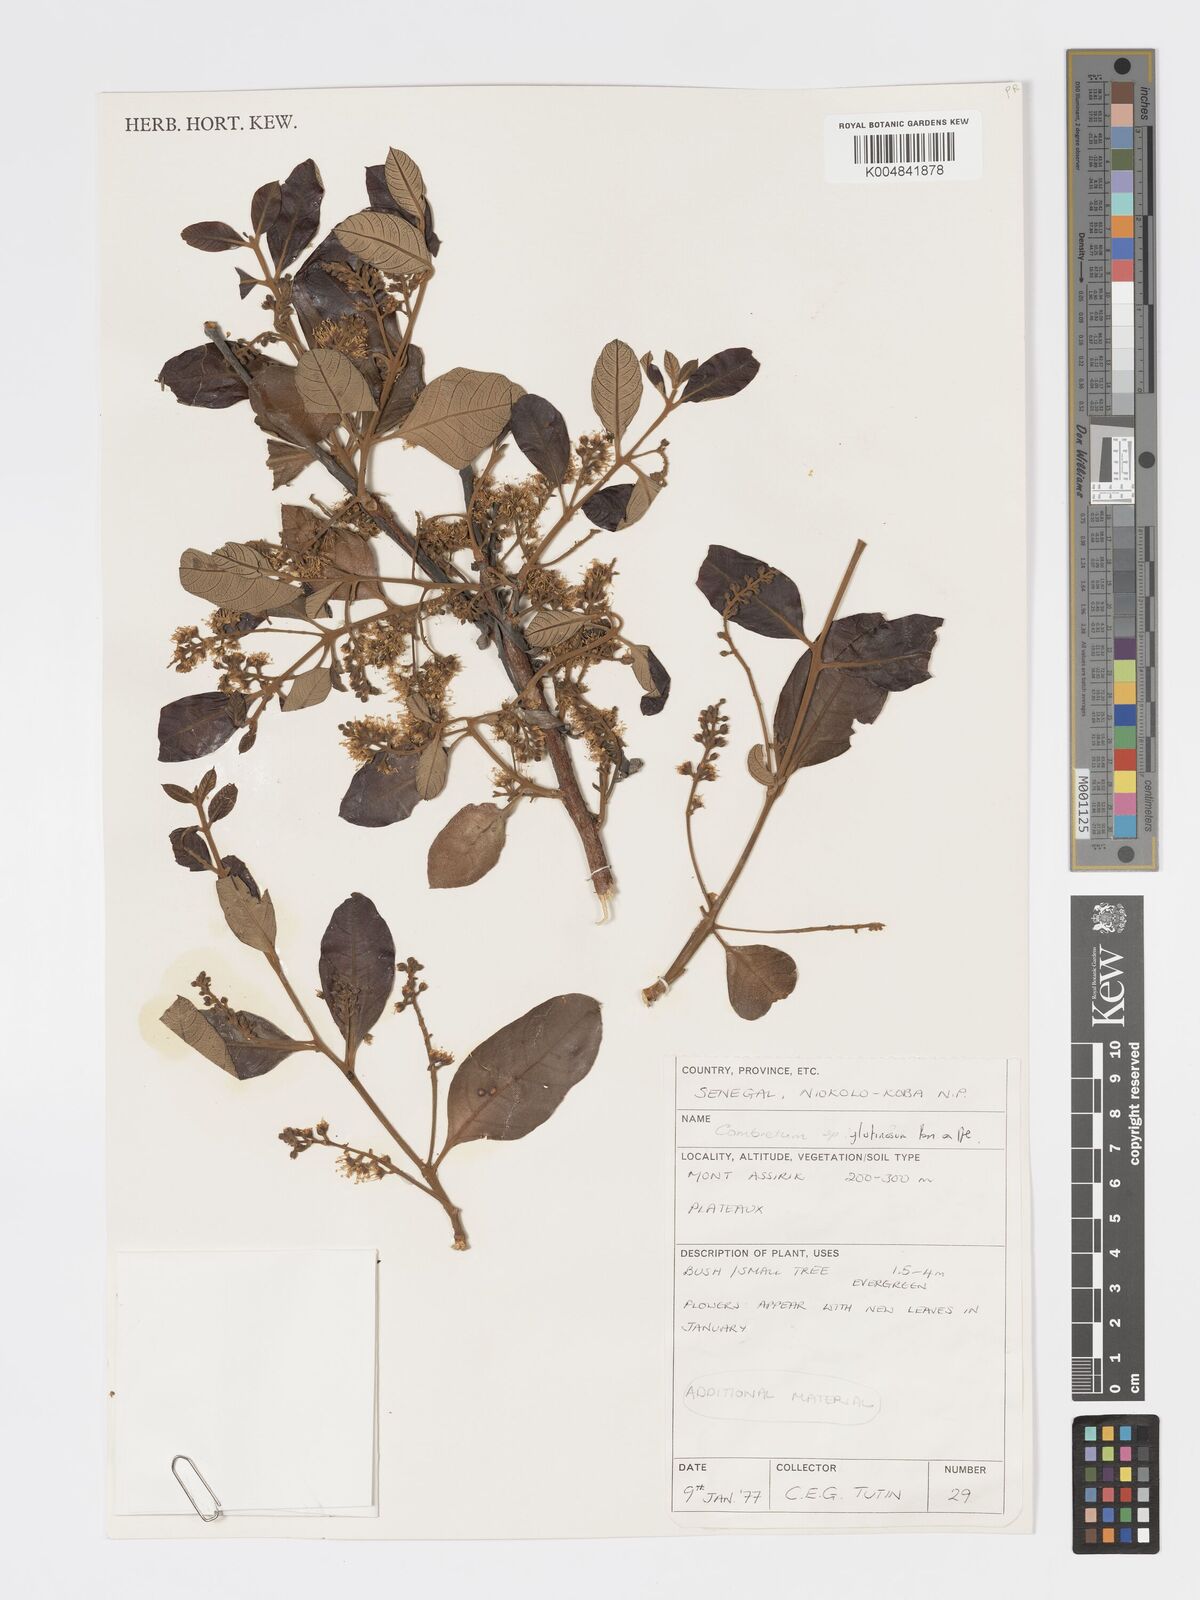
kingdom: Plantae
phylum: Tracheophyta
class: Magnoliopsida
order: Myrtales
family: Combretaceae
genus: Combretum
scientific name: Combretum
